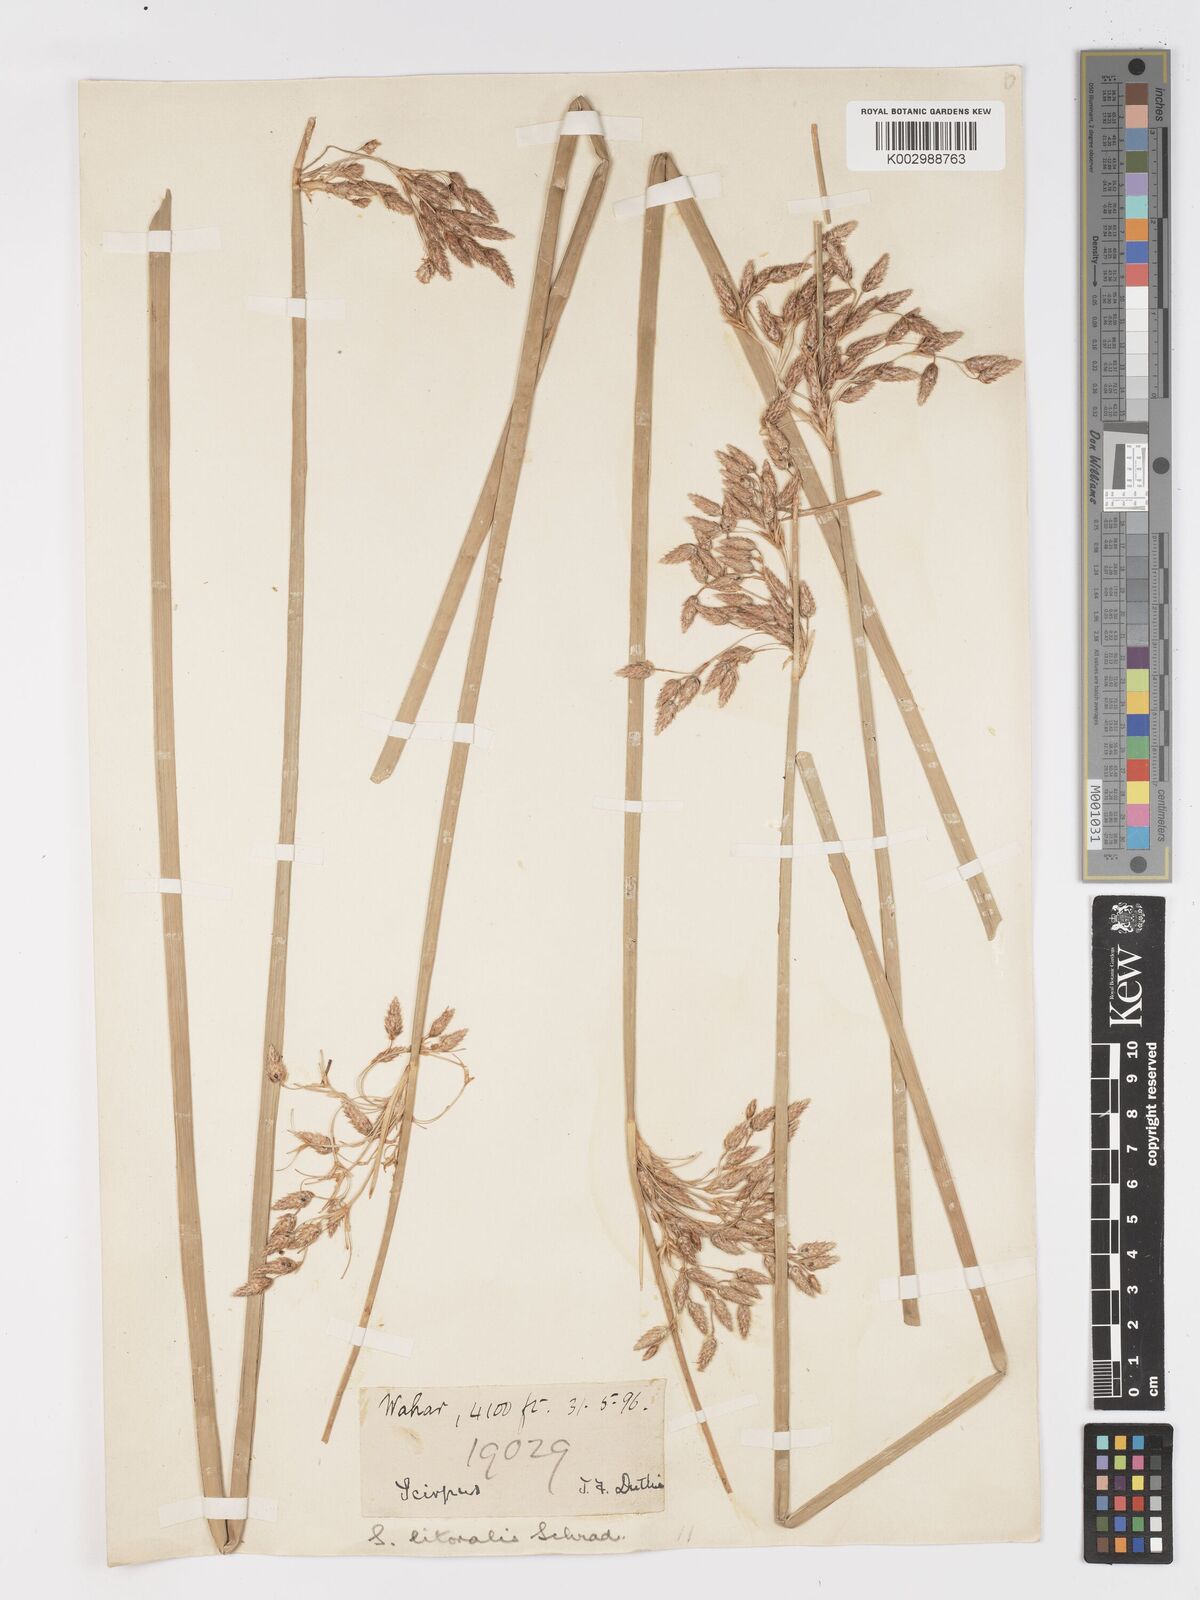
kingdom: Plantae
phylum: Tracheophyta
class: Liliopsida
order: Poales
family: Cyperaceae
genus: Schoenoplectus
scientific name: Schoenoplectus litoralis
